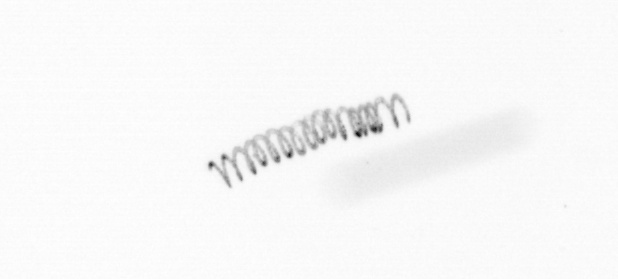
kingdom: Chromista
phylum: Ochrophyta
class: Bacillariophyceae
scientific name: Bacillariophyceae
